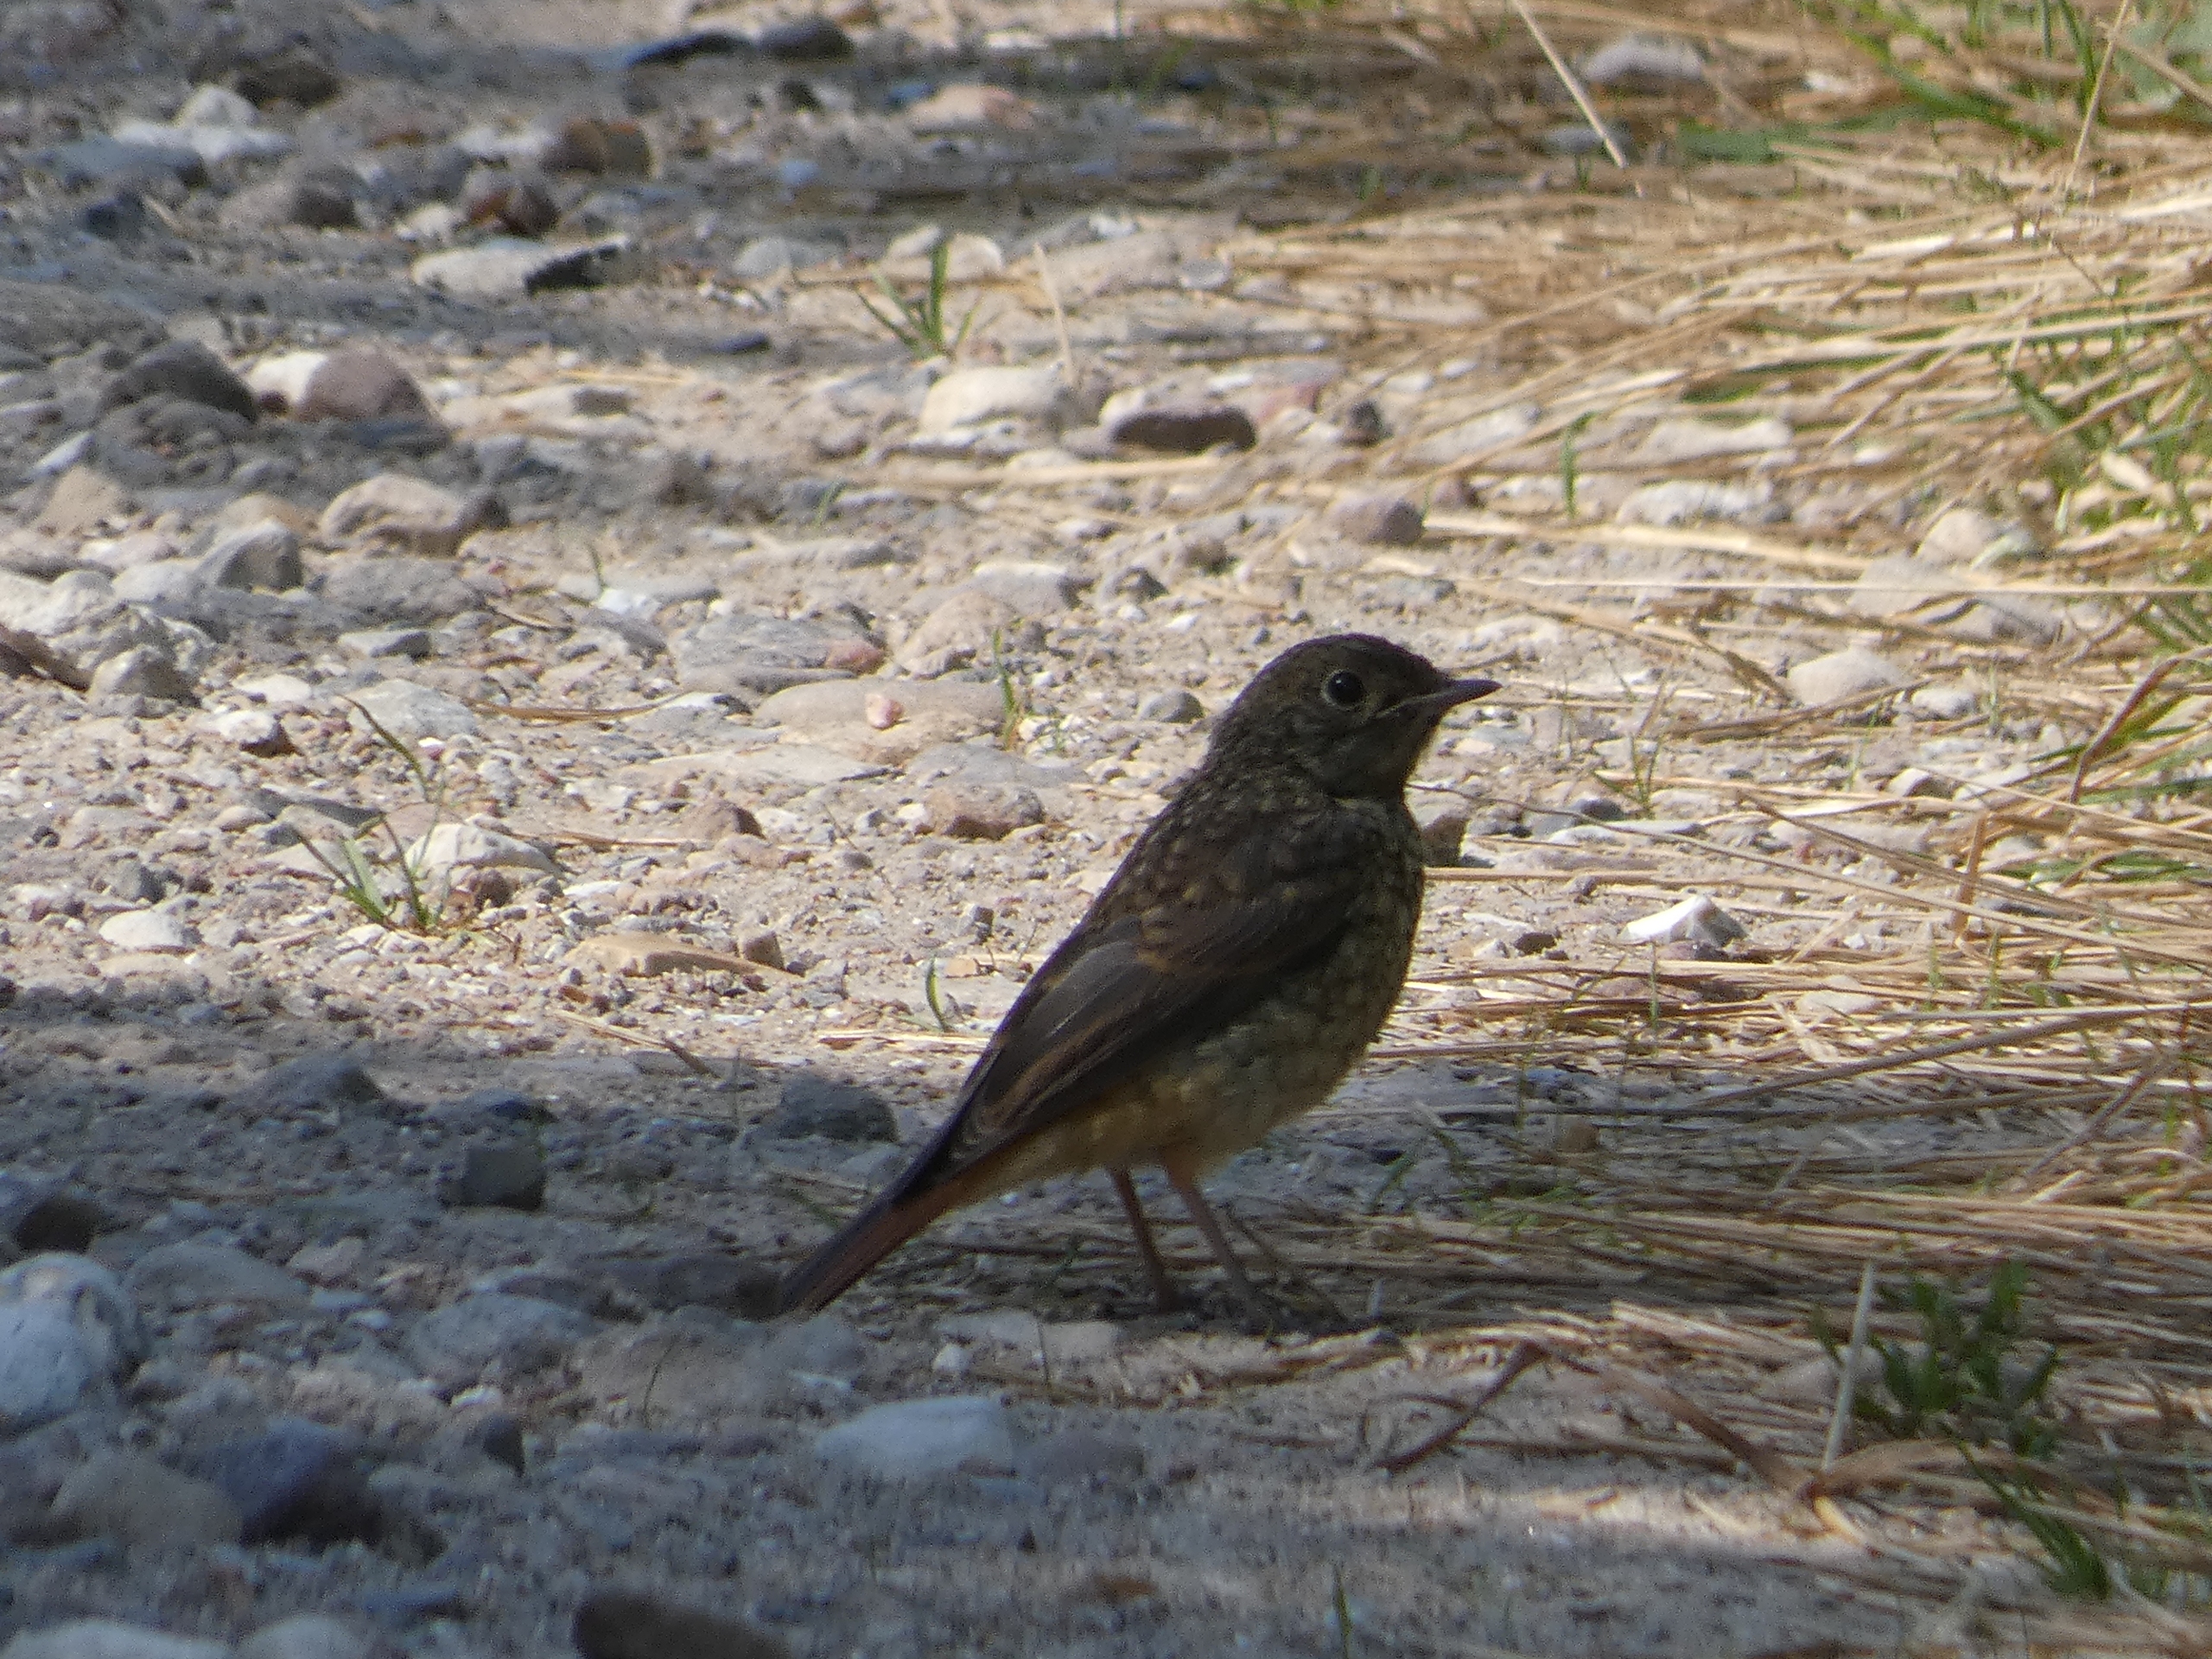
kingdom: Animalia
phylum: Chordata
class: Aves
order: Passeriformes
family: Muscicapidae
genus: Phoenicurus
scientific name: Phoenicurus phoenicurus
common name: Rødstjert
